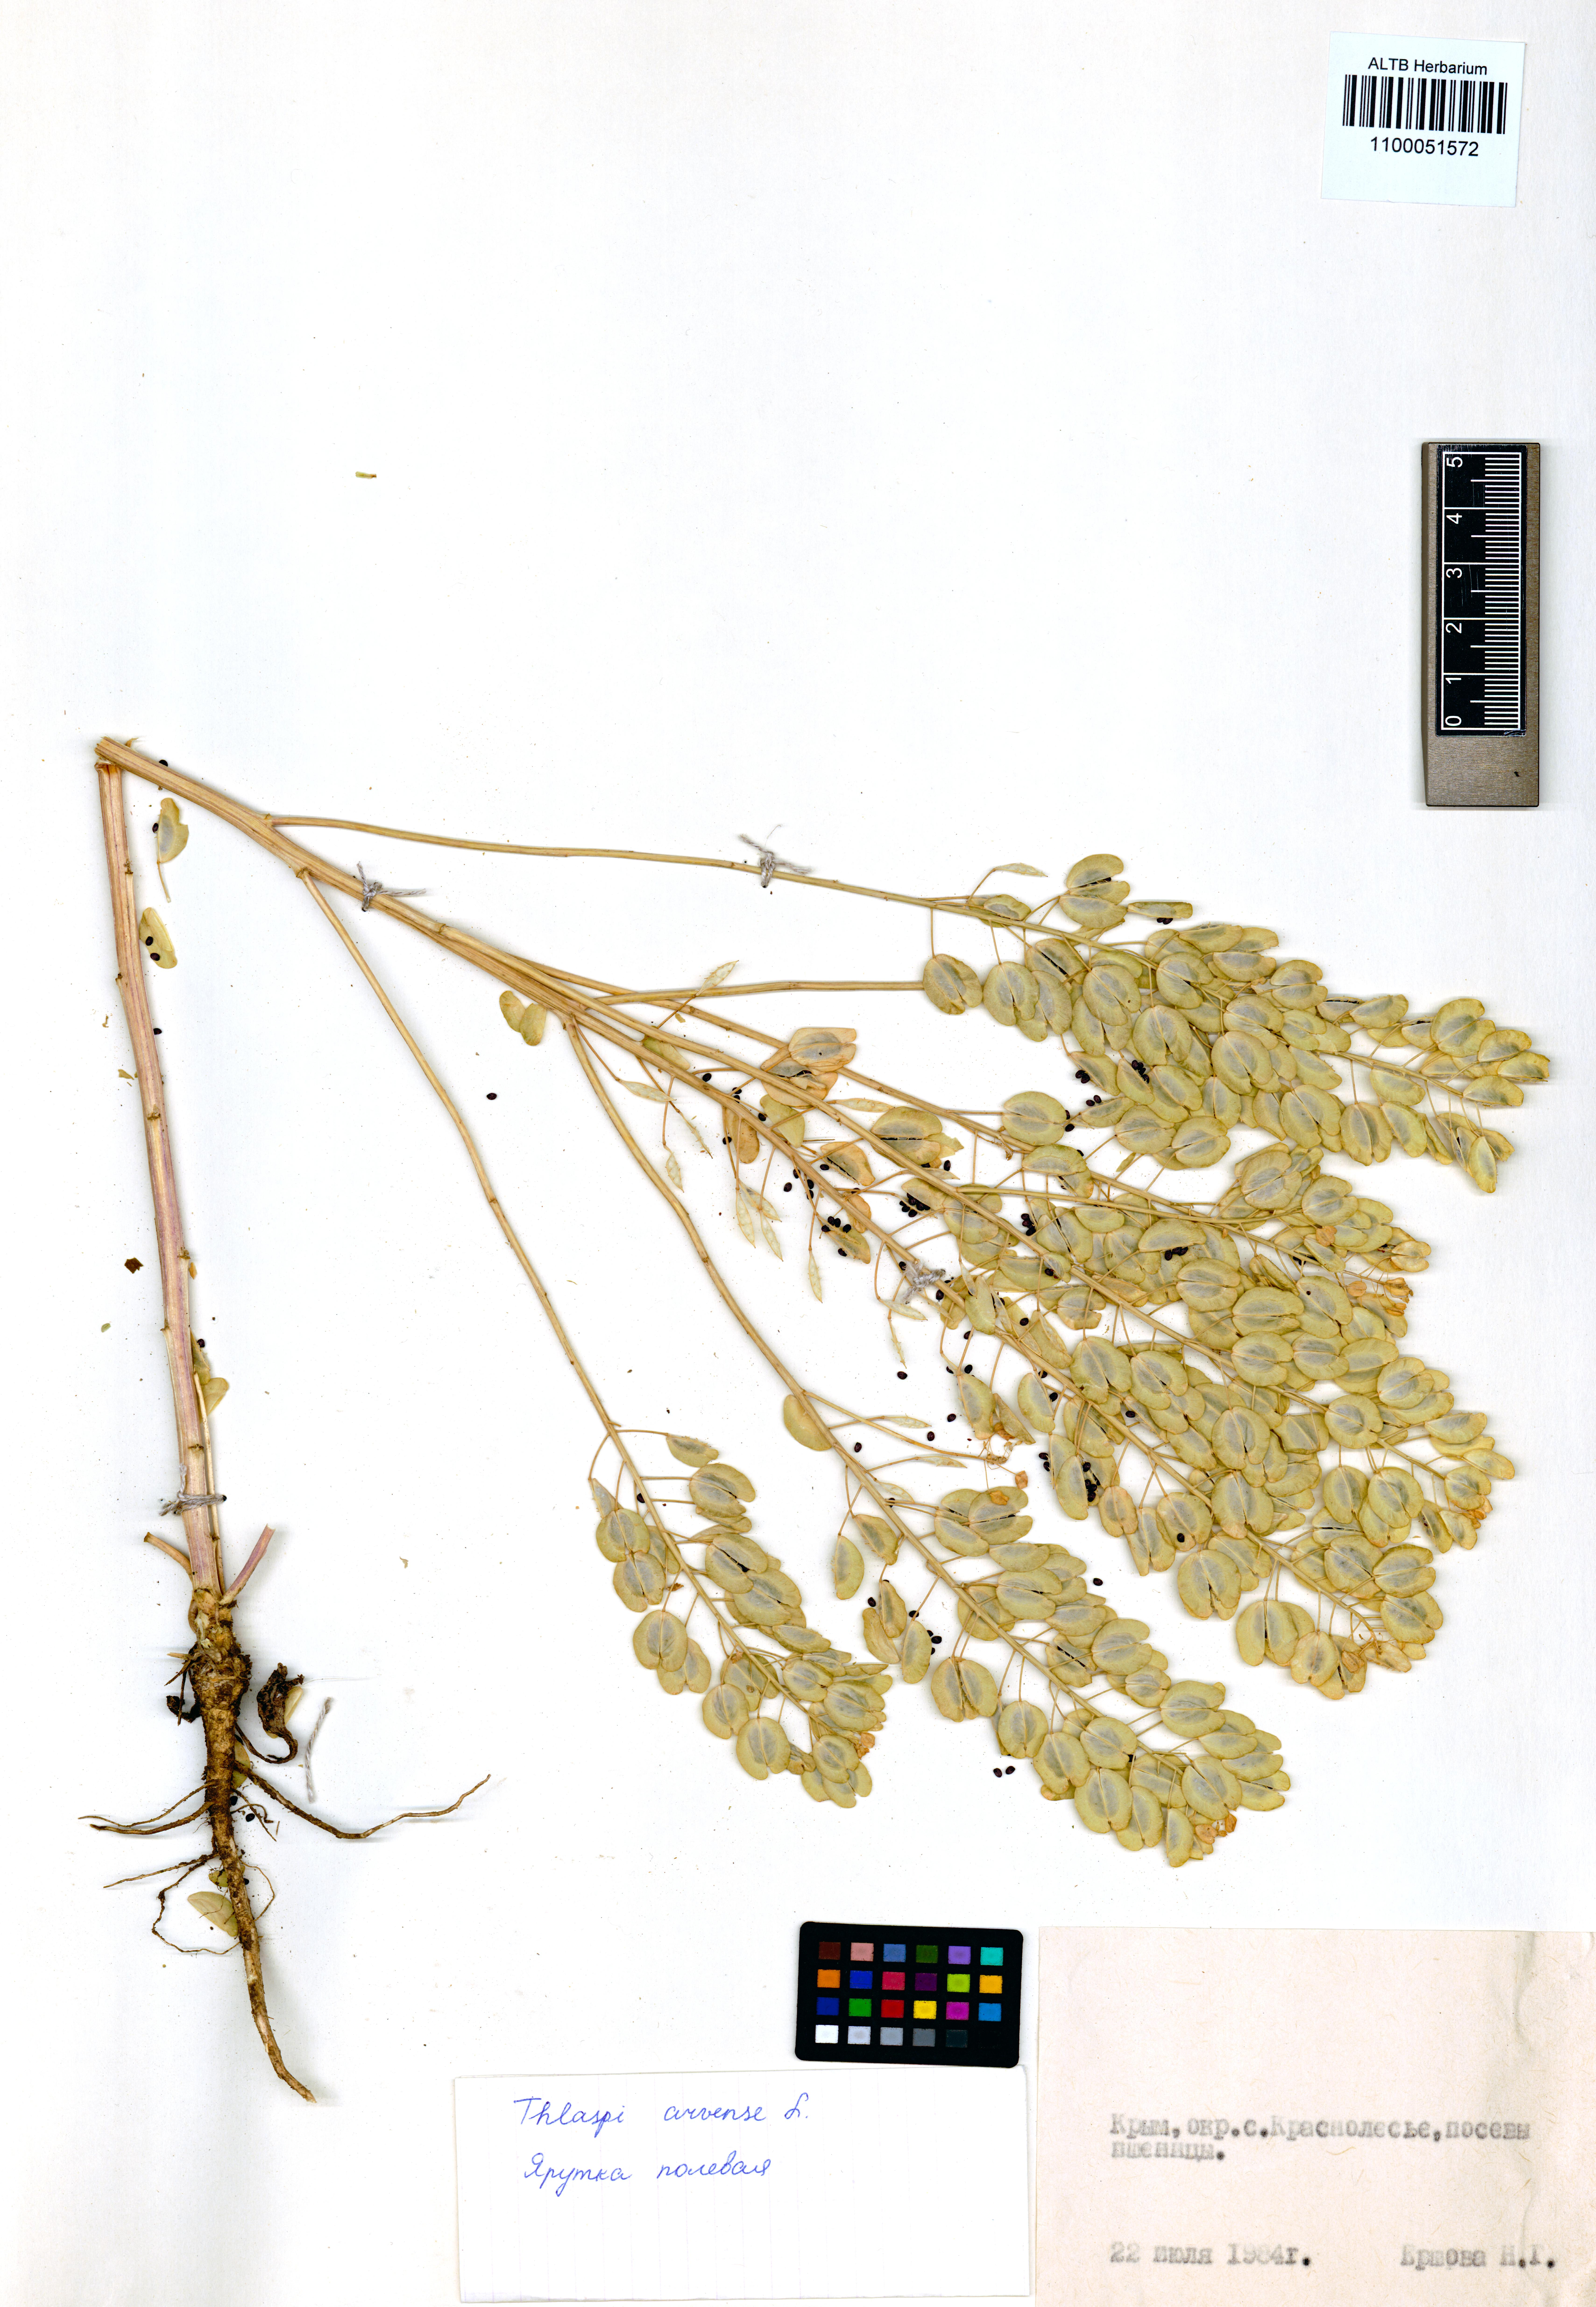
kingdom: Plantae
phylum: Tracheophyta
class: Magnoliopsida
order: Brassicales
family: Brassicaceae
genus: Thlaspi
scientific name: Thlaspi arvense
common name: Field pennycress
